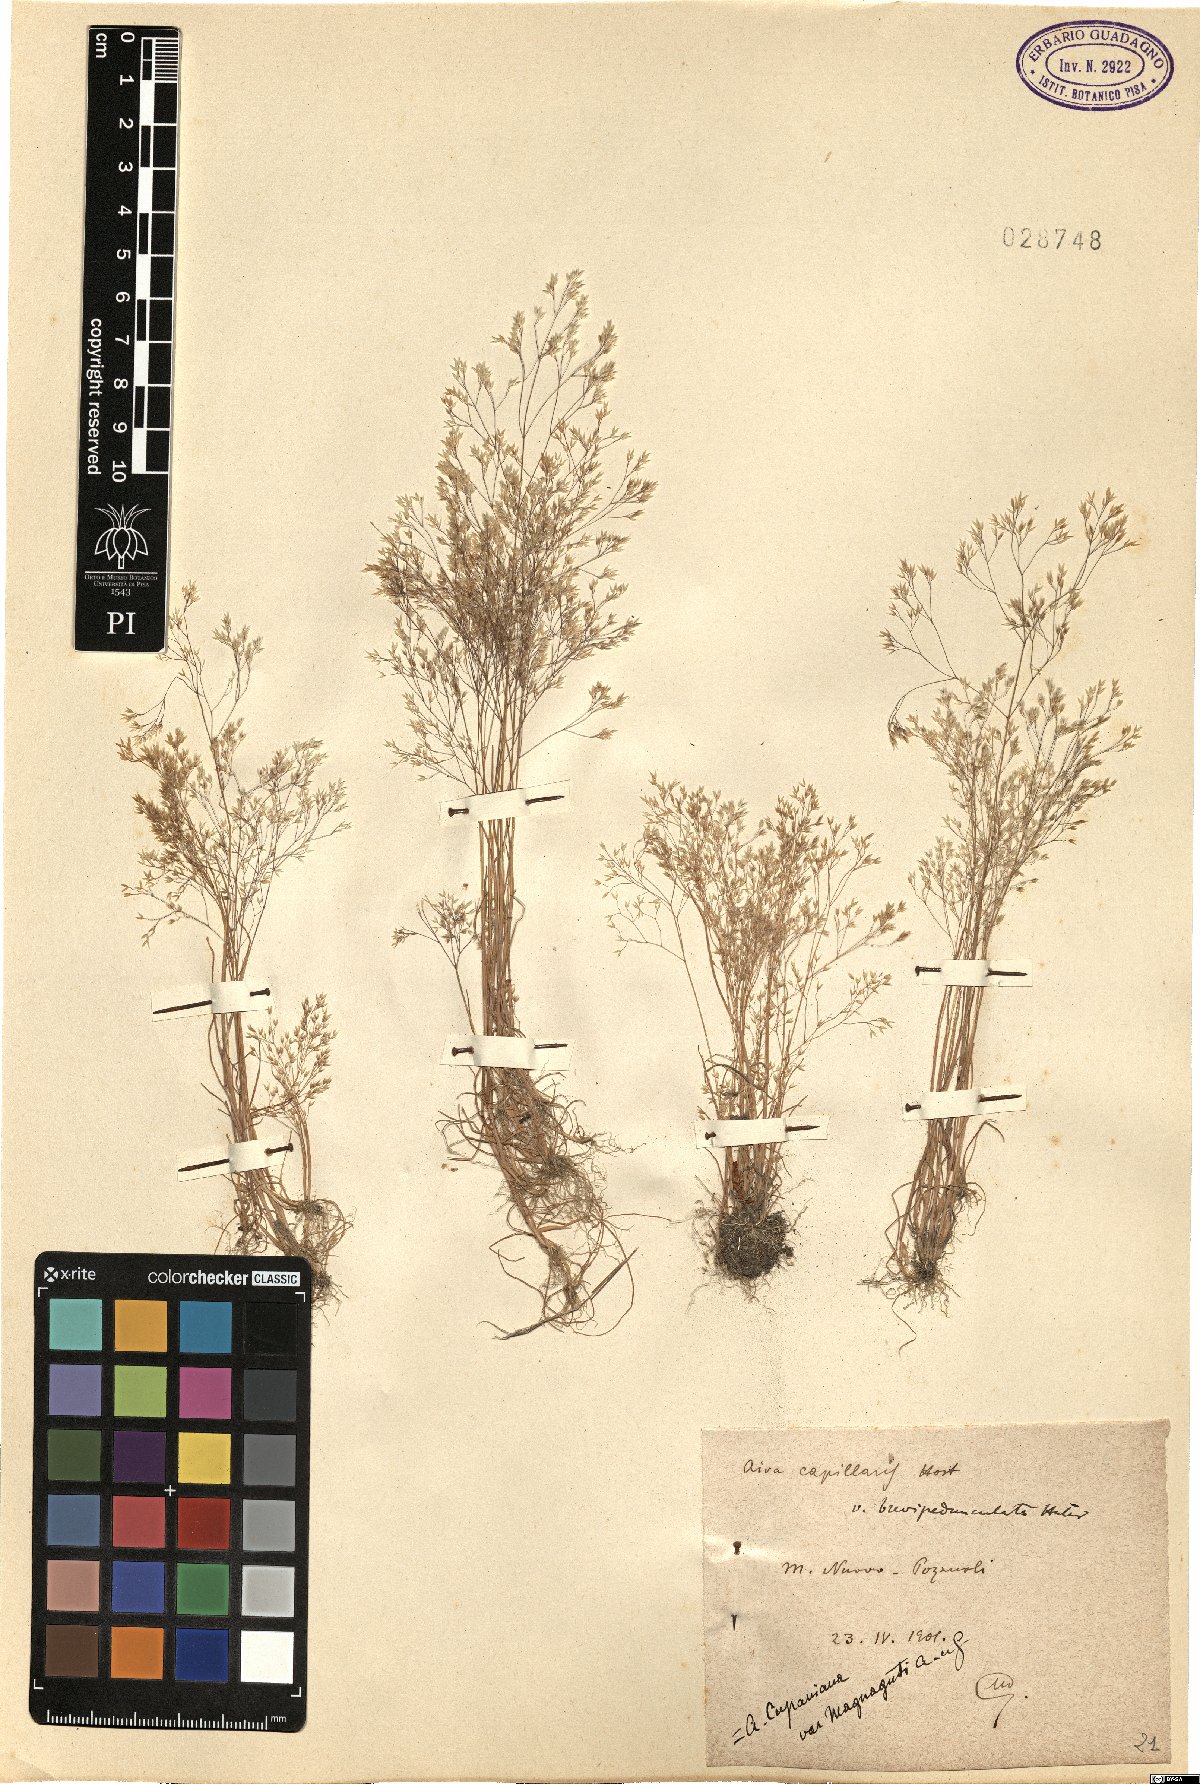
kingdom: Plantae
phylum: Tracheophyta
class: Liliopsida
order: Poales
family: Poaceae
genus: Aira
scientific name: Aira cupaniana
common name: Silver hairgrass
